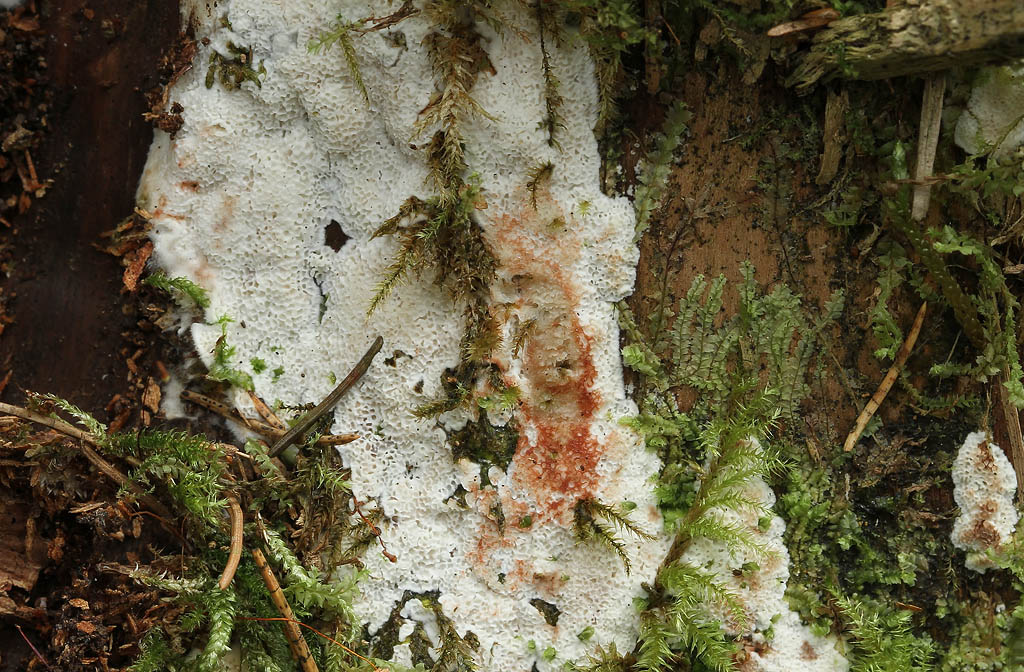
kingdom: Fungi
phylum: Basidiomycota
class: Agaricomycetes
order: Polyporales
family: Meripilaceae
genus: Rigidoporus
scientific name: Rigidoporus sanguinolentus
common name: blod-skorpeporesvamp
